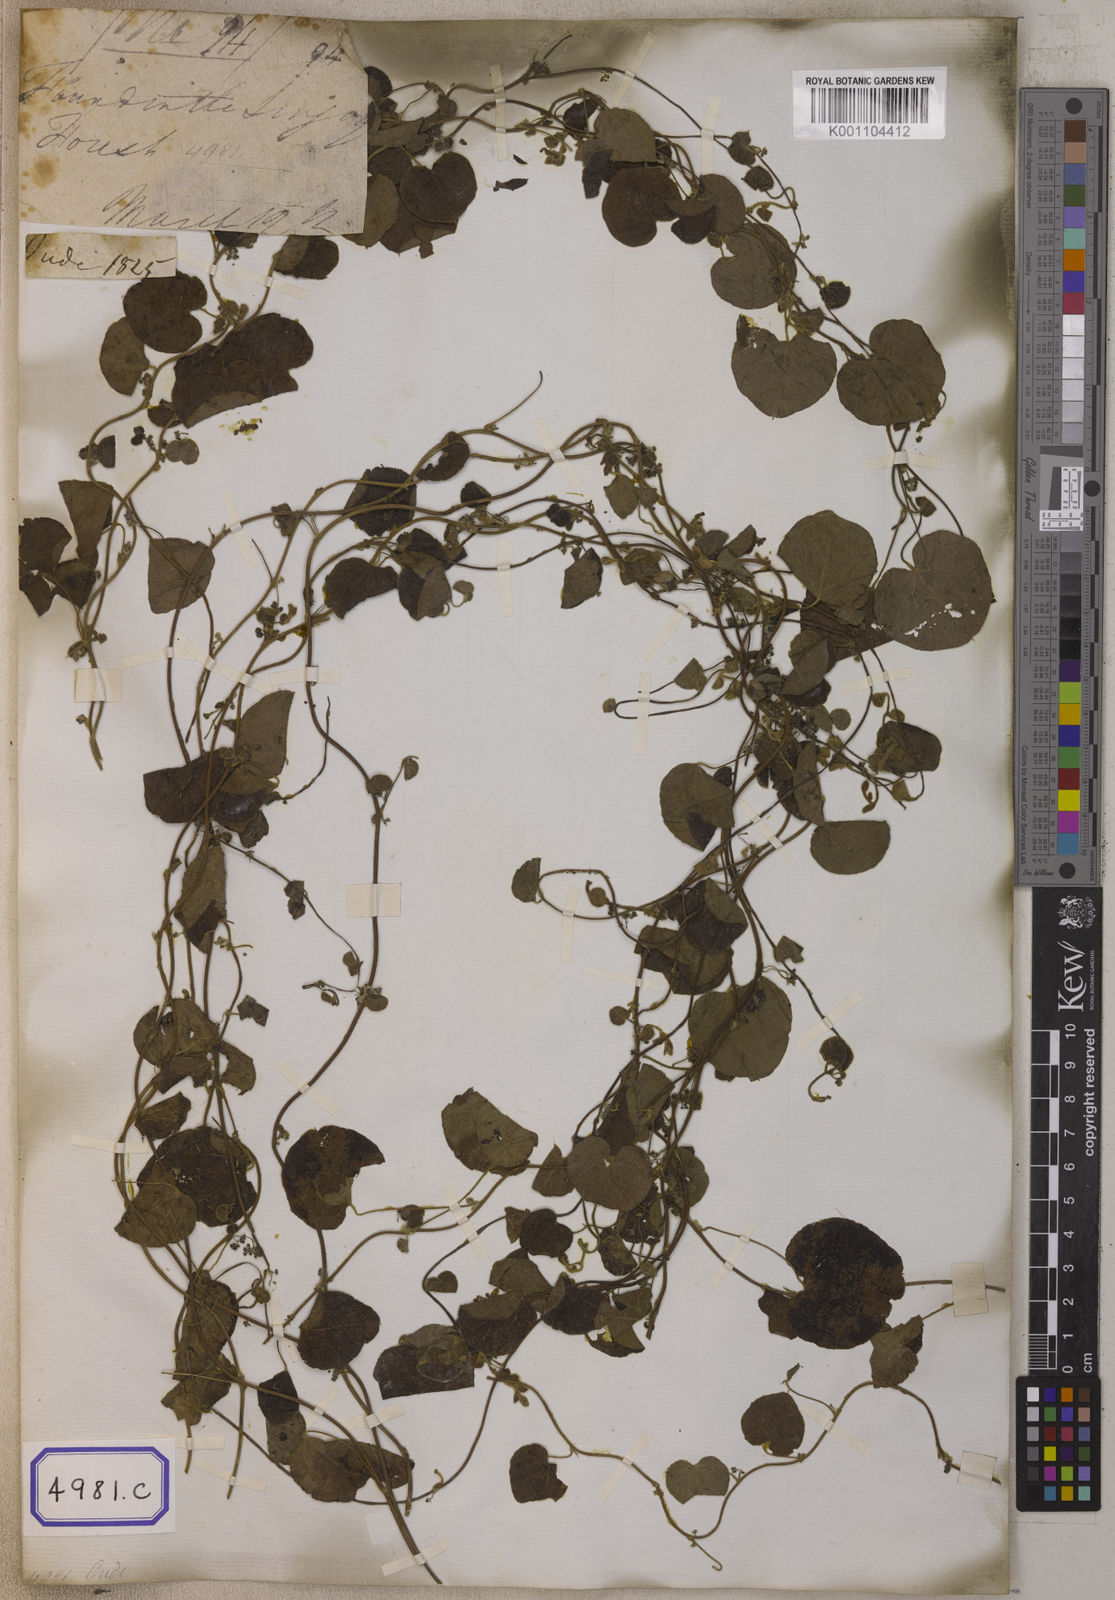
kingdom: Plantae
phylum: Tracheophyta
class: Magnoliopsida
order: Ranunculales
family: Menispermaceae
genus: Cissampelos
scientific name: Cissampelos
